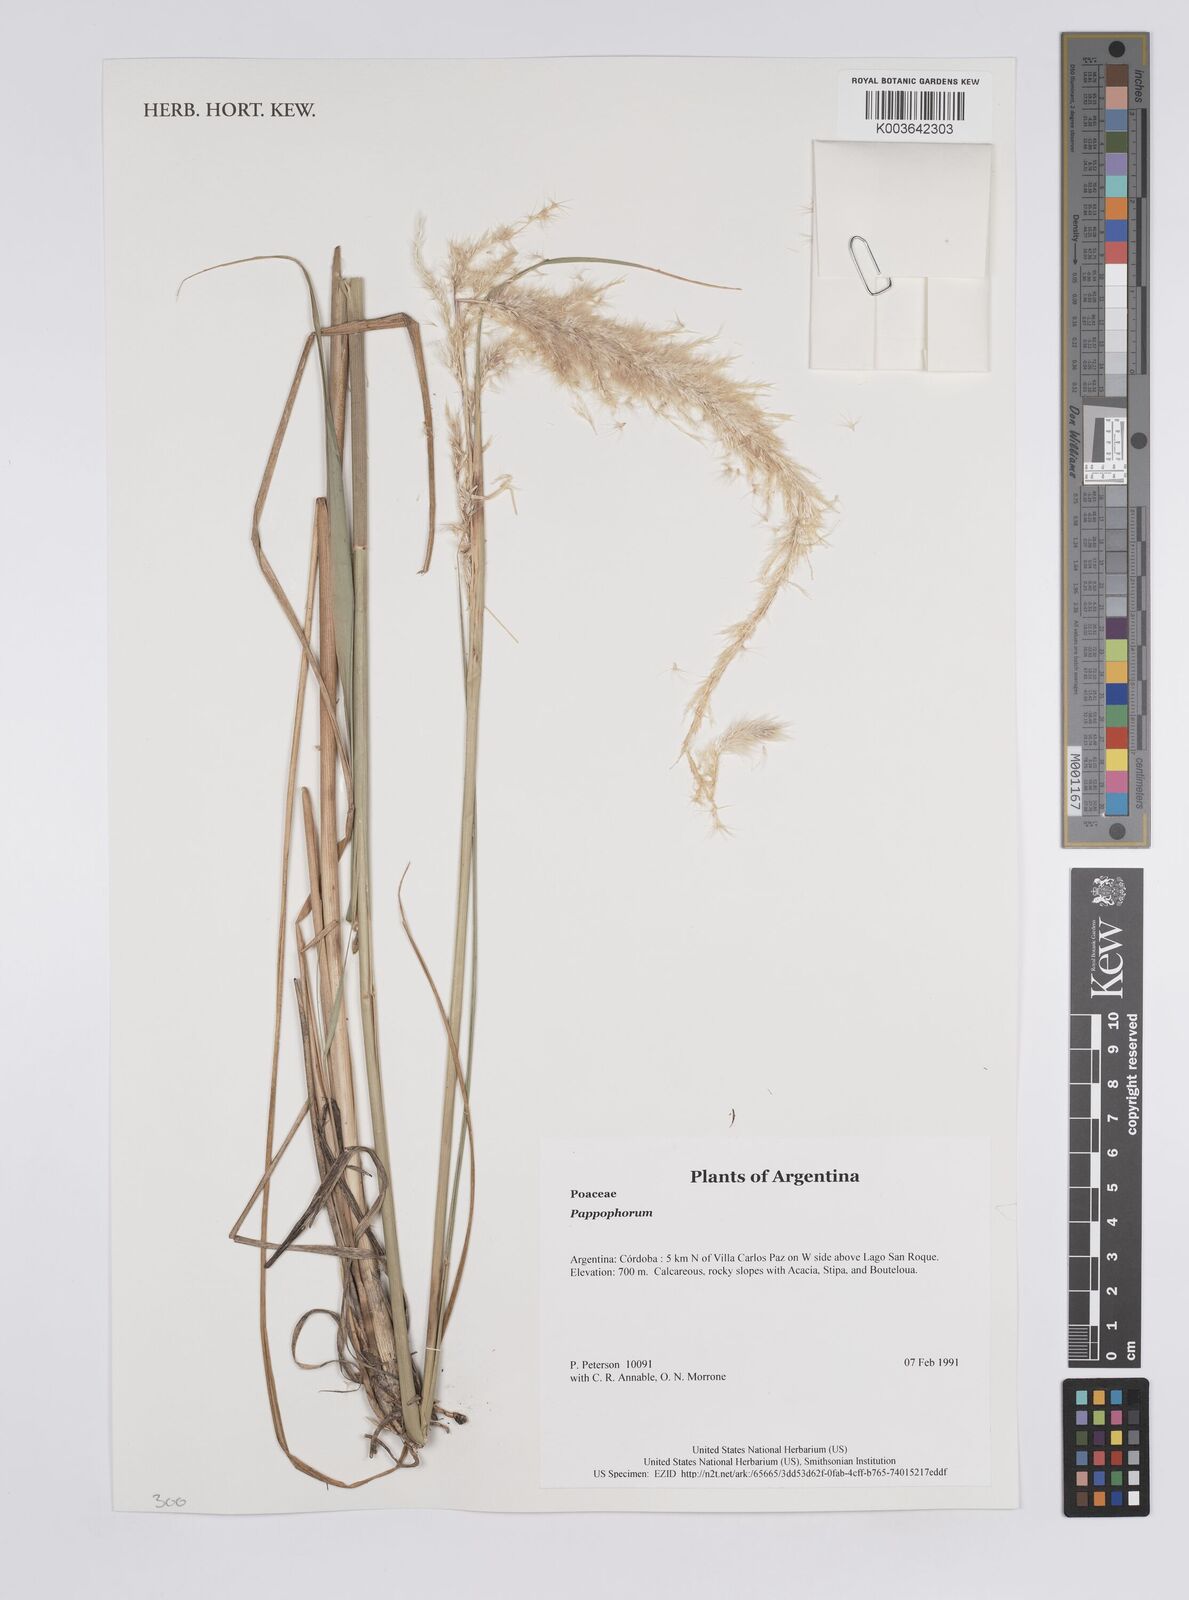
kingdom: Plantae
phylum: Tracheophyta
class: Liliopsida
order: Poales
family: Poaceae
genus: Pappophorum
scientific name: Pappophorum
